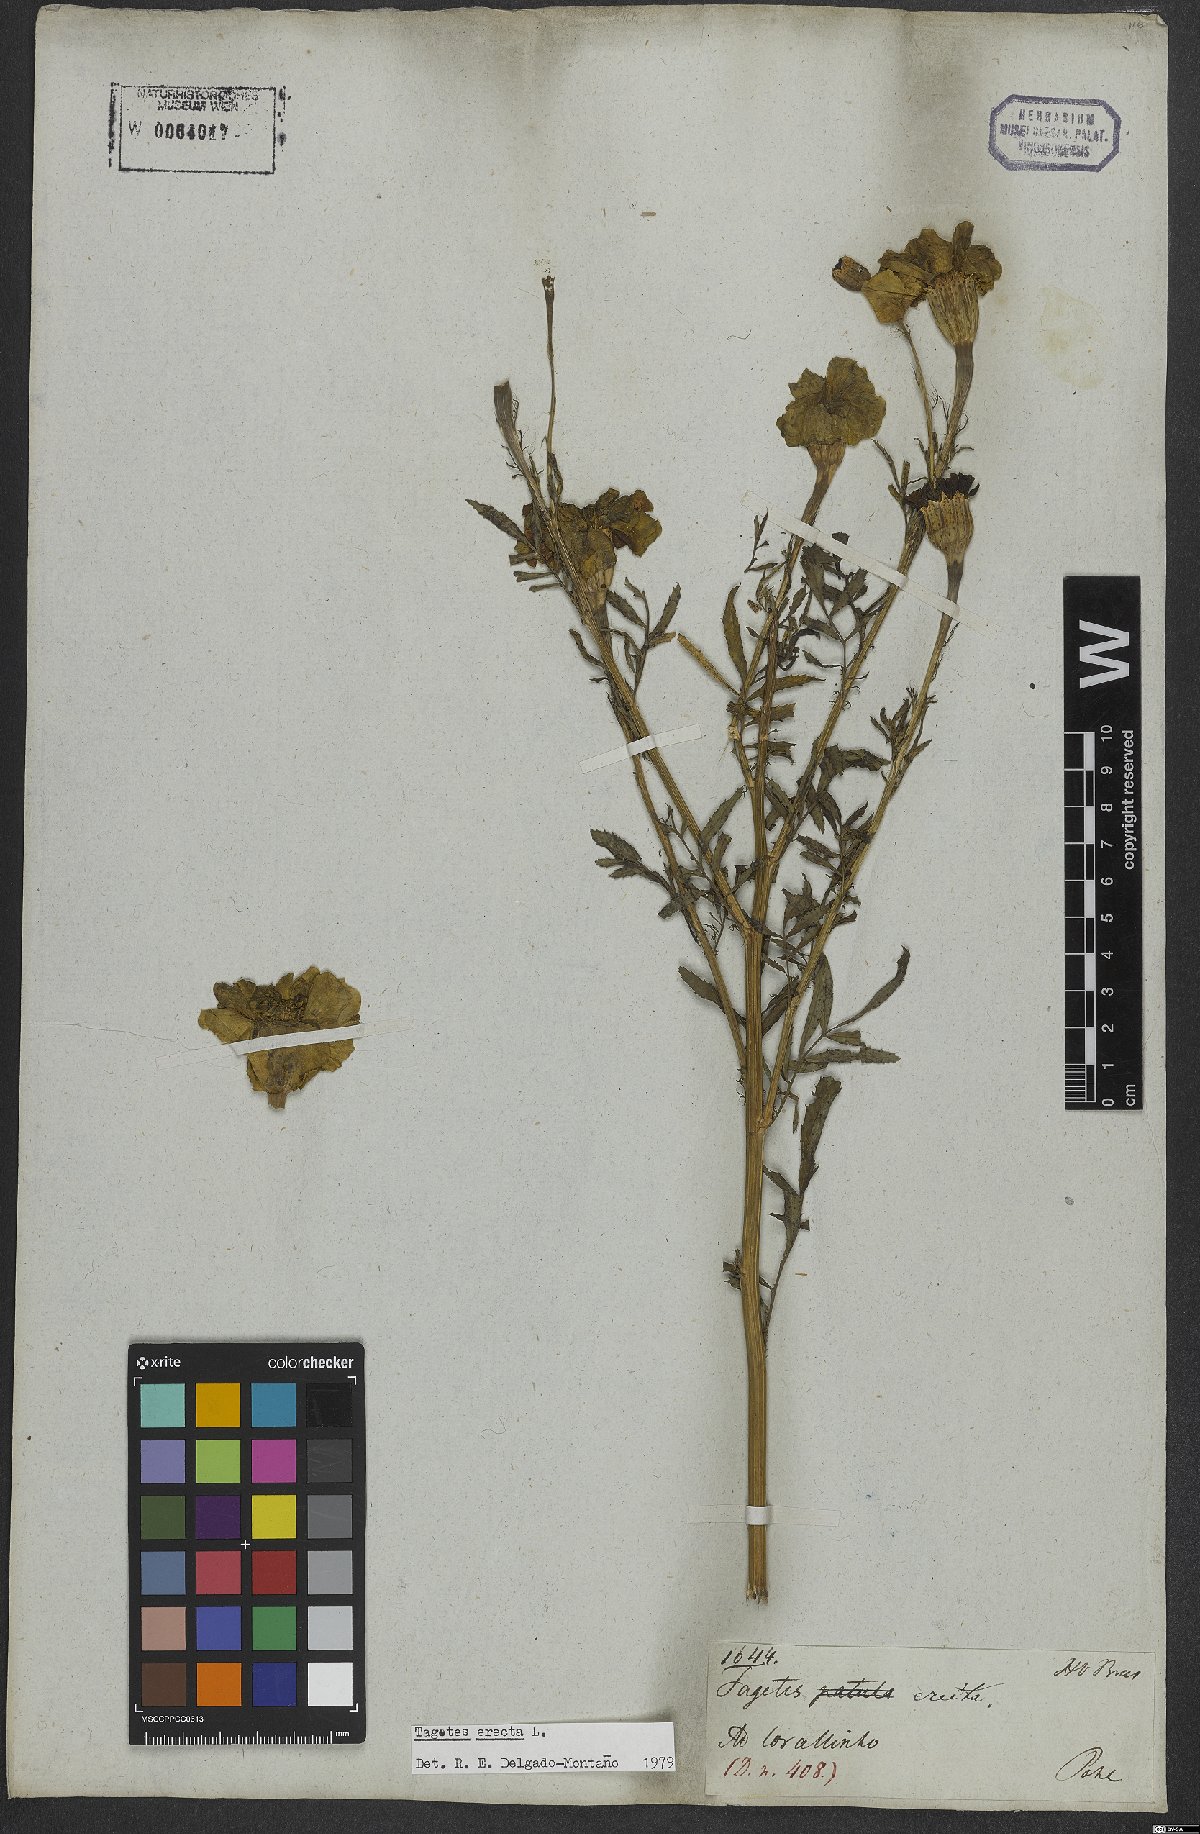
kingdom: Plantae
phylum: Tracheophyta
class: Magnoliopsida
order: Asterales
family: Asteraceae
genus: Tagetes
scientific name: Tagetes erecta
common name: African marigold
